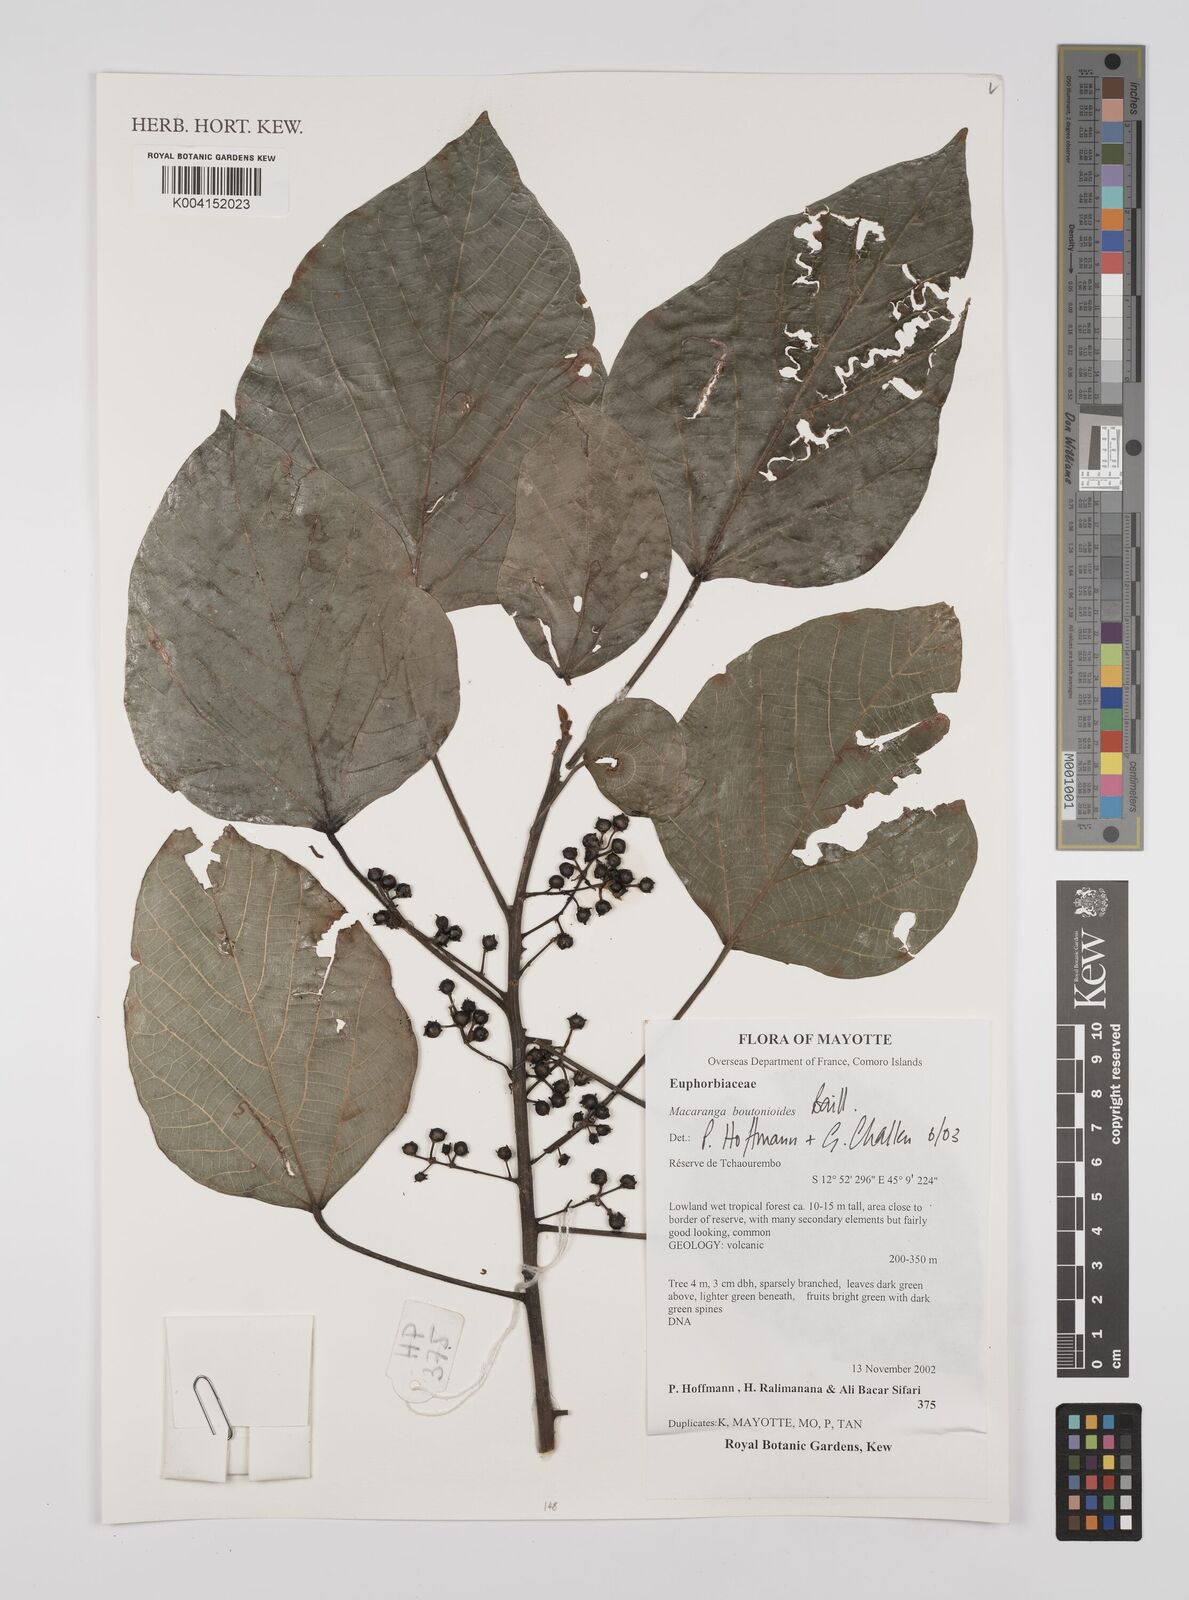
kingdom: Plantae
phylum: Tracheophyta
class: Magnoliopsida
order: Malpighiales
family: Euphorbiaceae
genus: Macaranga
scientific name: Macaranga boutonioides
